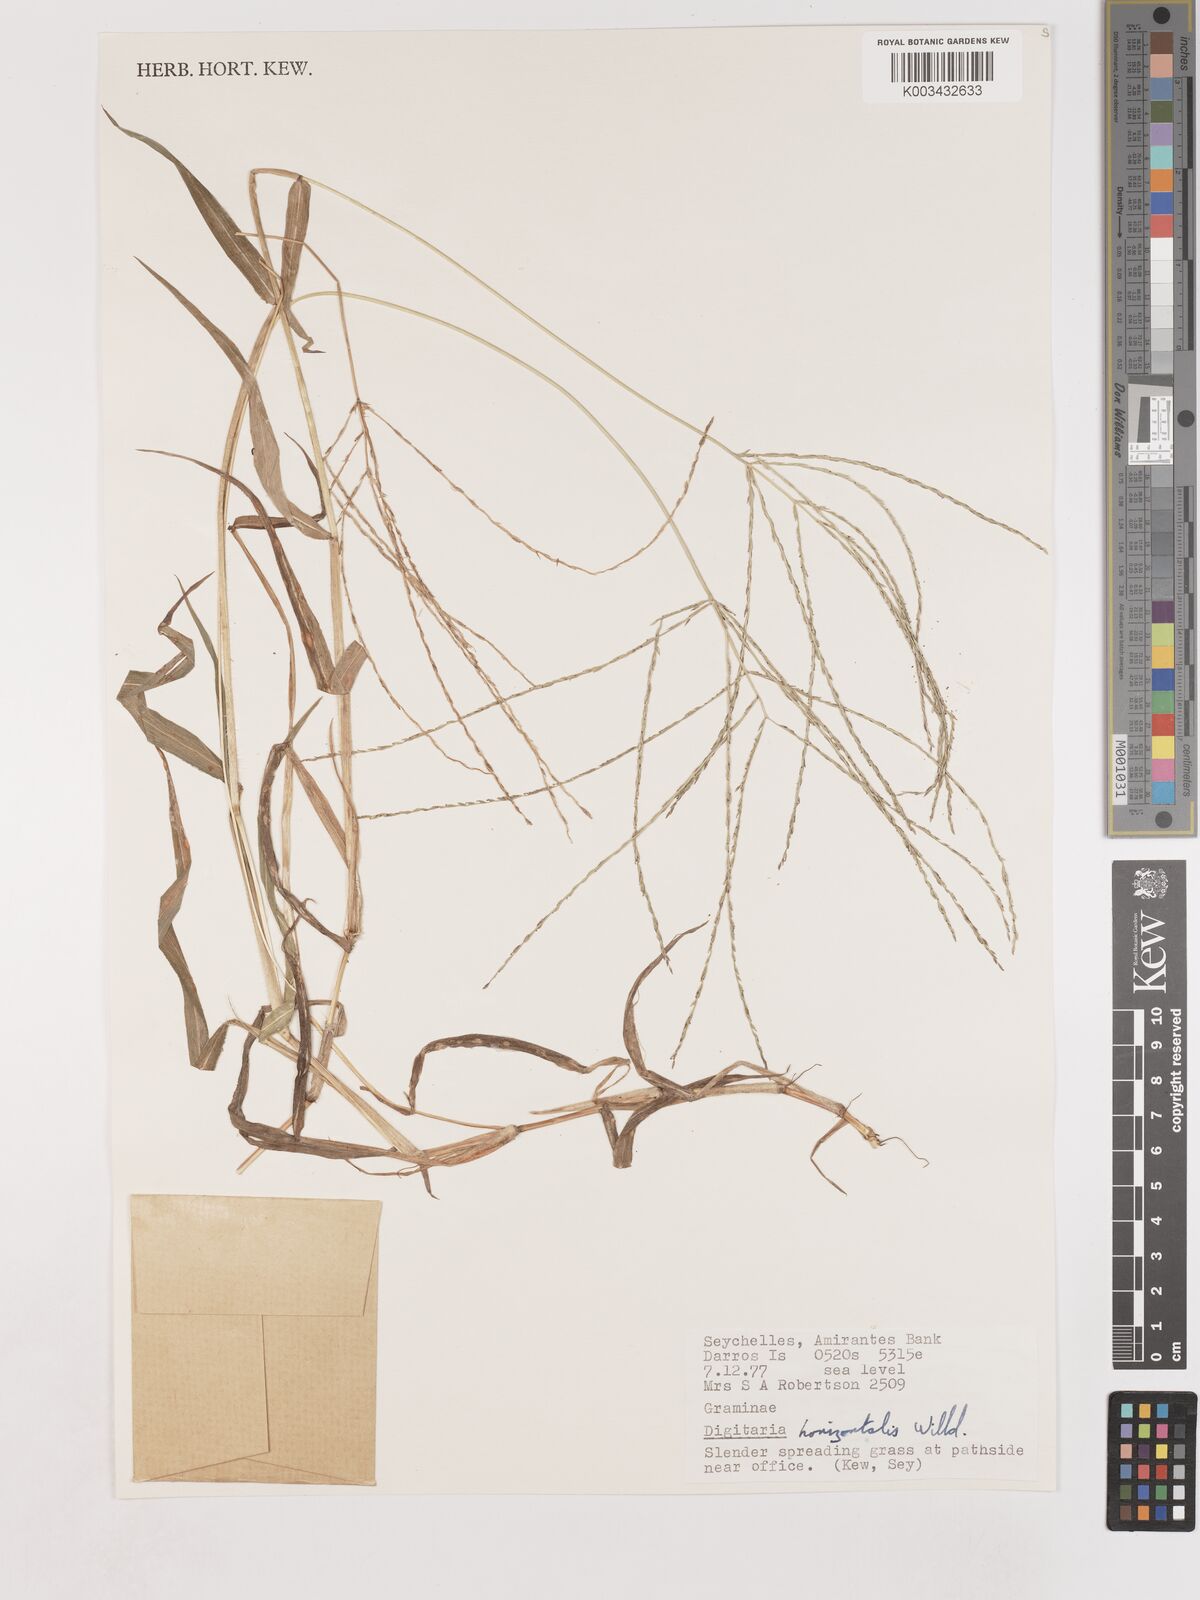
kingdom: Plantae
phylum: Tracheophyta
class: Liliopsida
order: Poales
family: Poaceae
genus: Digitaria
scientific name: Digitaria horizontalis
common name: Jamaican crabgrass
